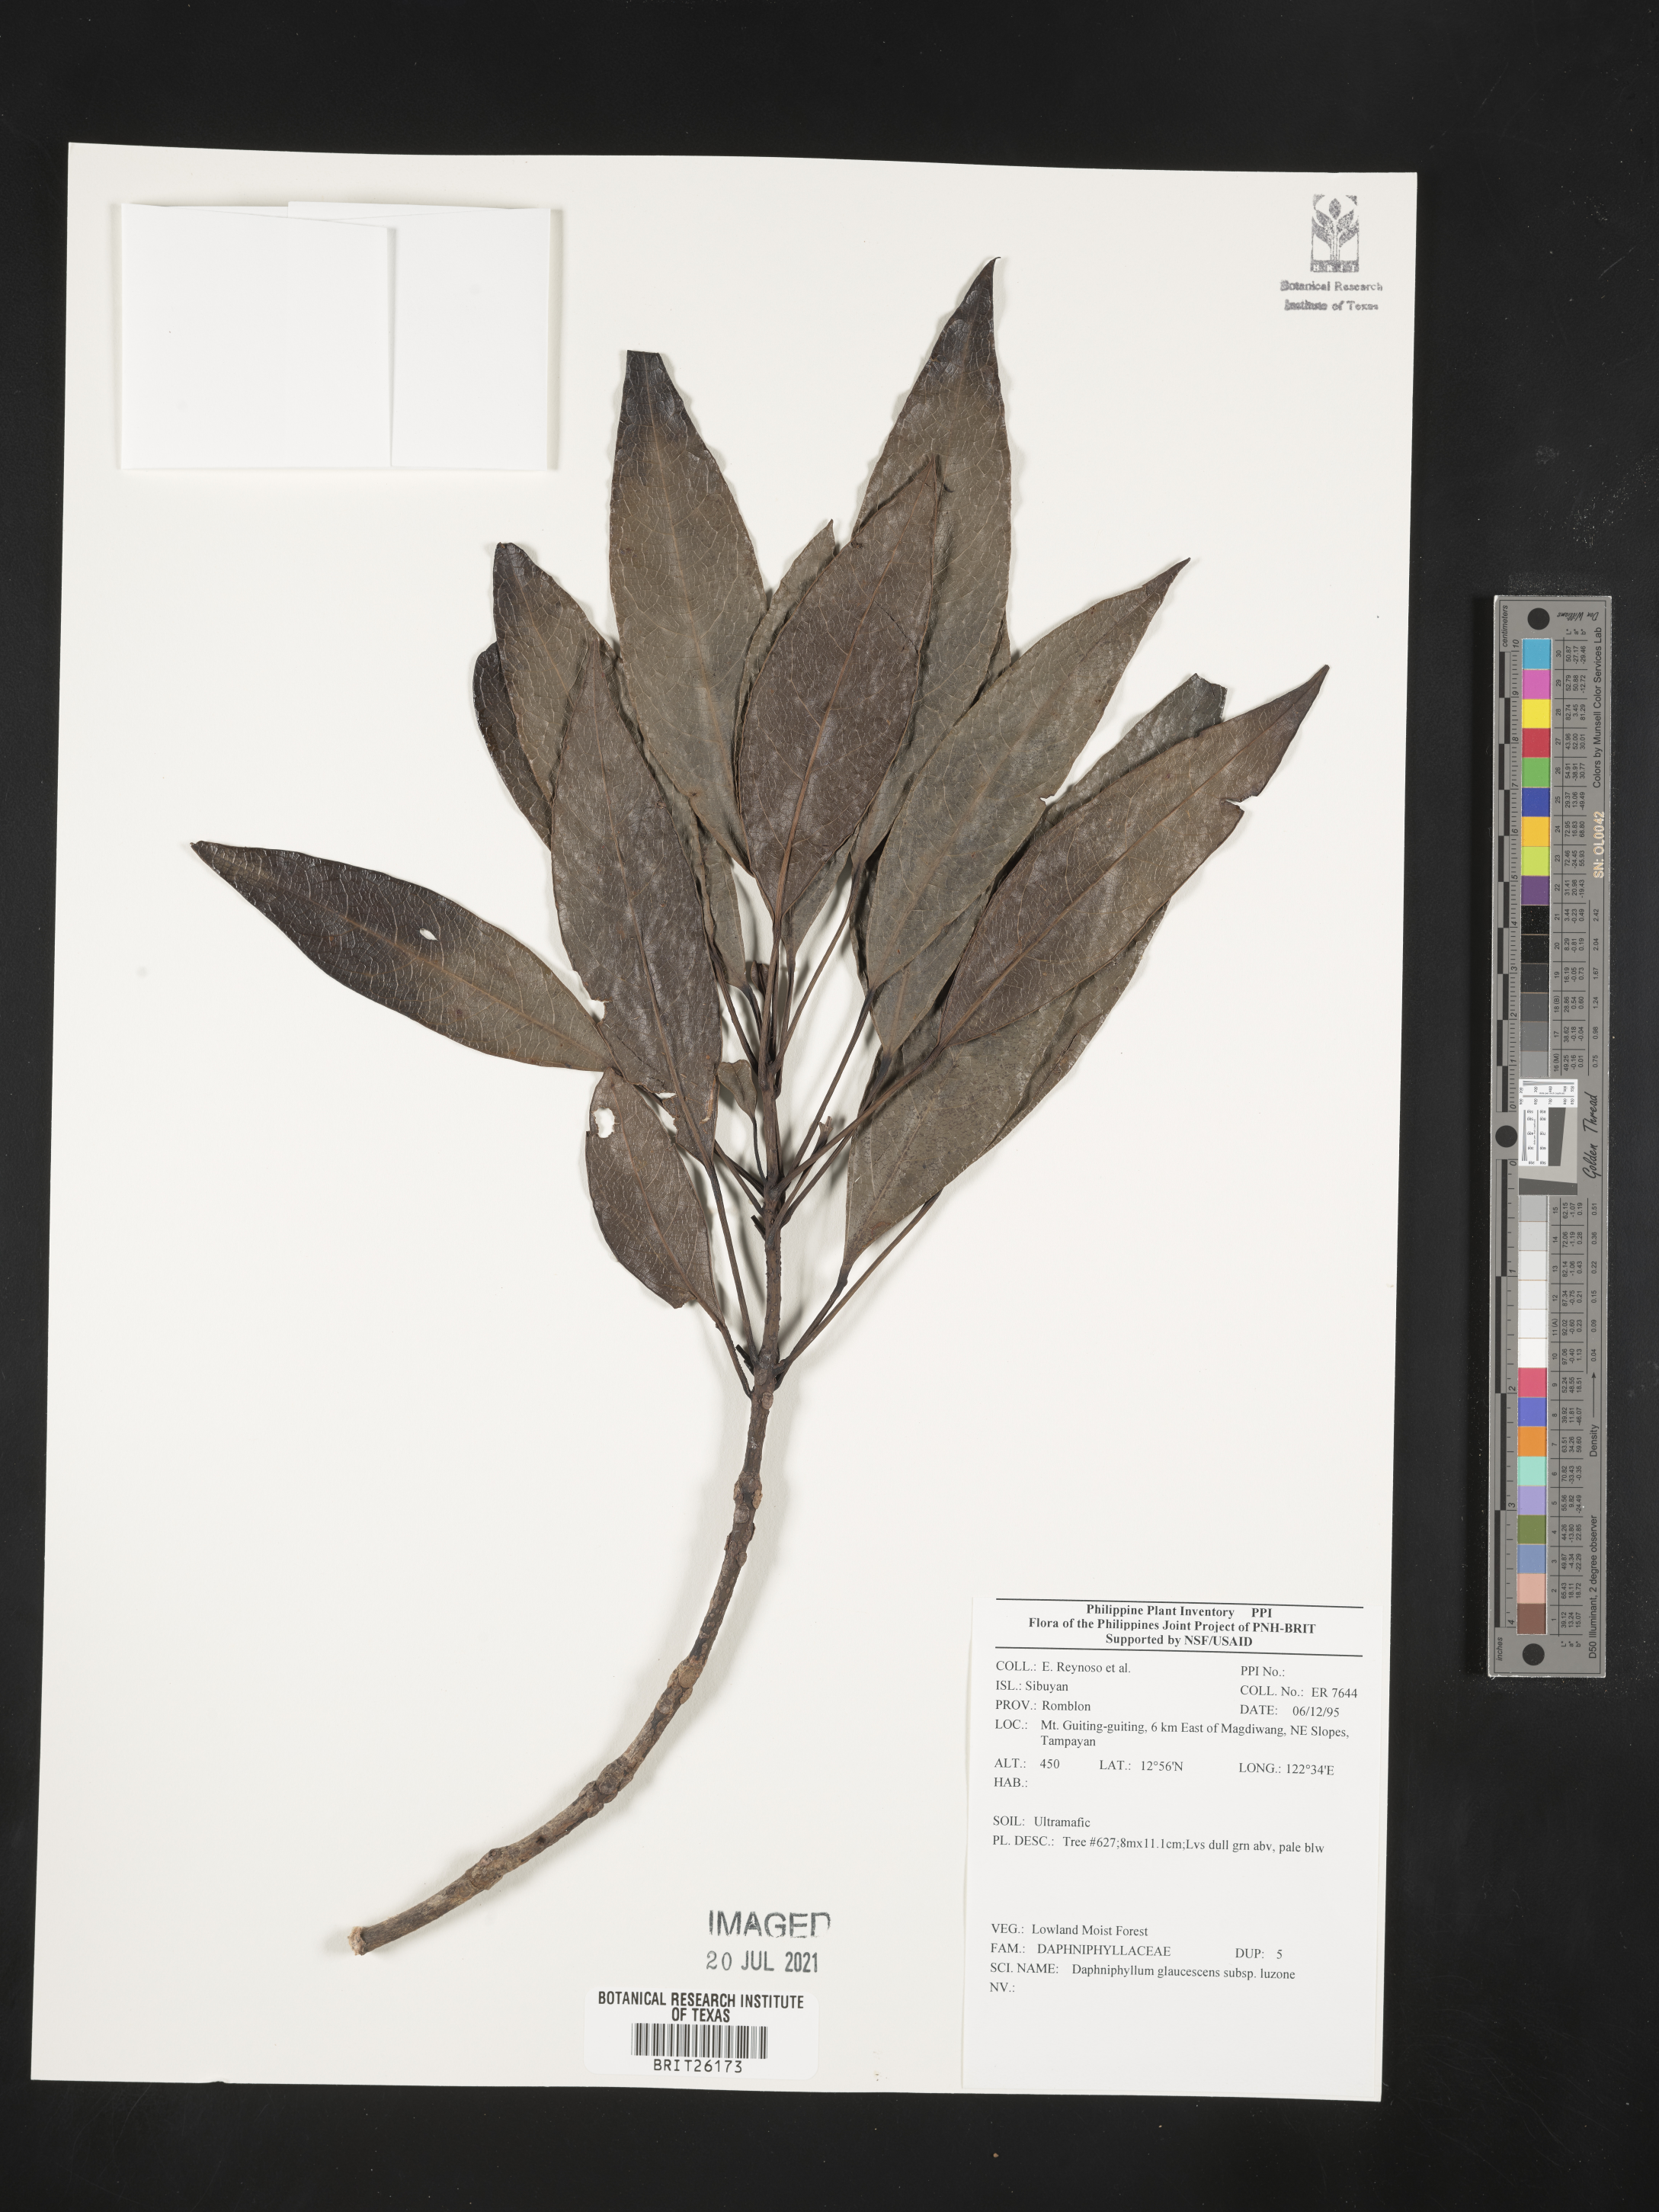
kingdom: Plantae
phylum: Tracheophyta
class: Magnoliopsida
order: Saxifragales
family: Daphniphyllaceae
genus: Daphniphyllum
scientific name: Daphniphyllum glaucescens
